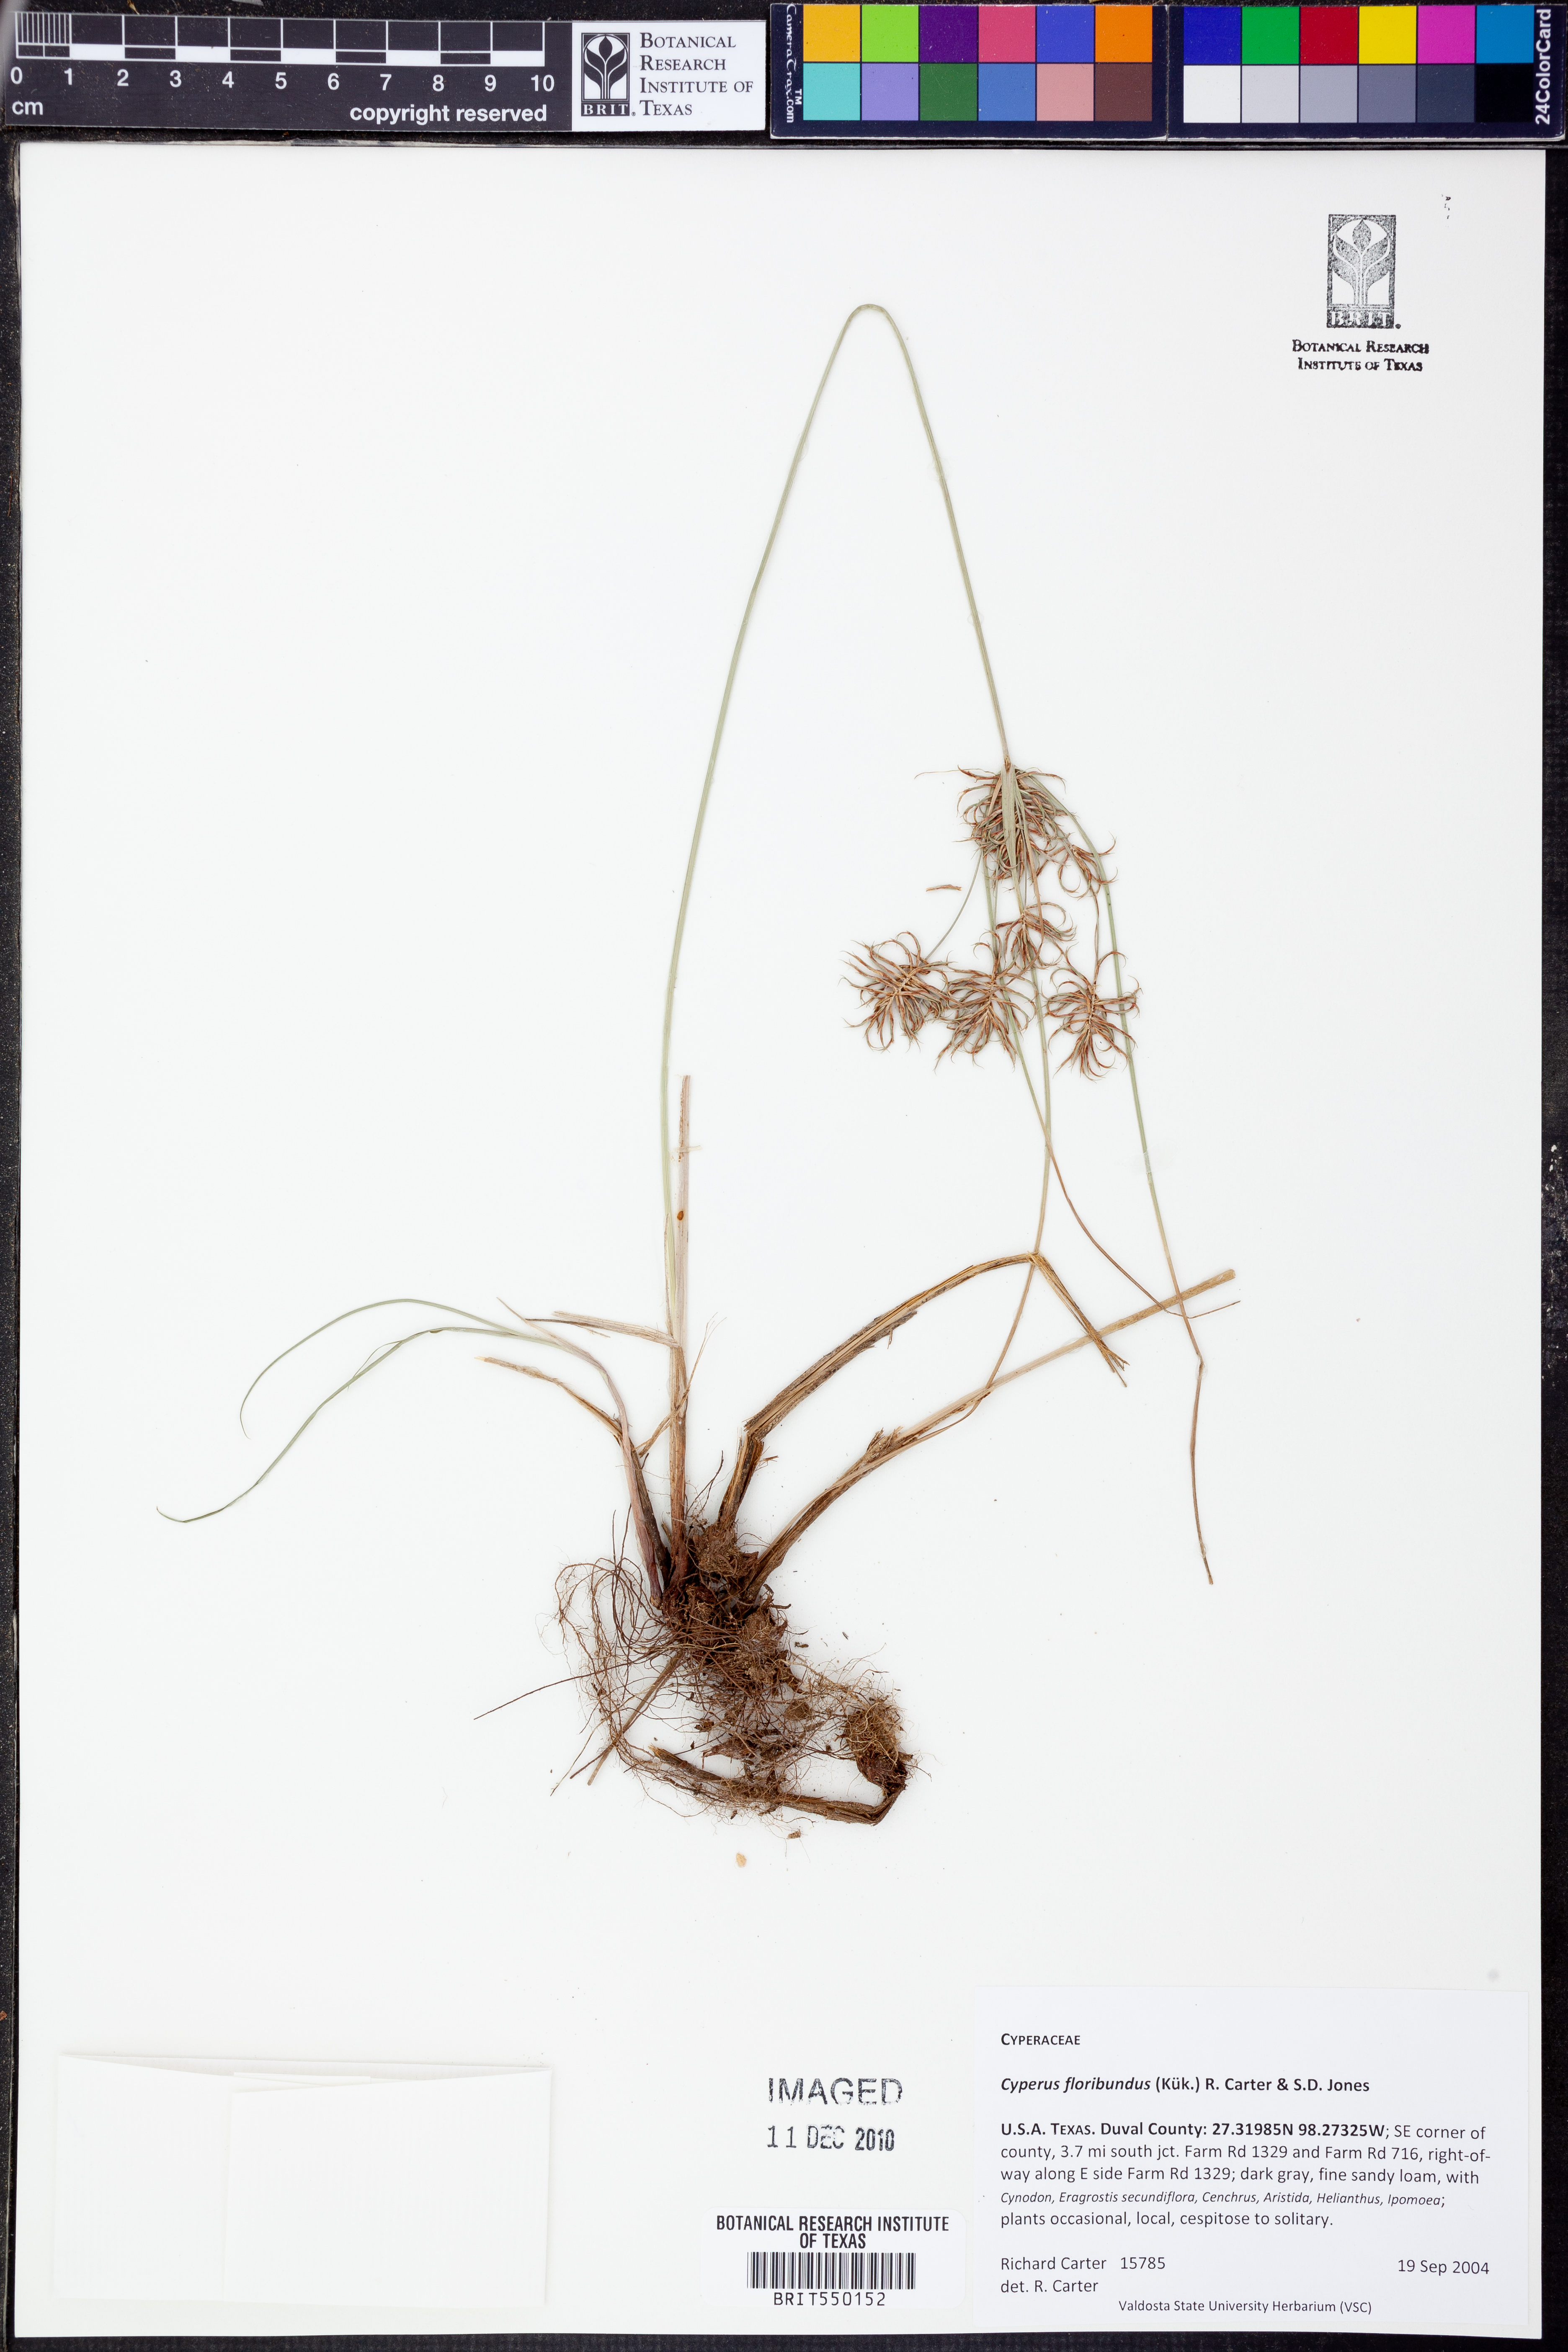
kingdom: Plantae
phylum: Tracheophyta
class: Liliopsida
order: Poales
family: Cyperaceae
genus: Cyperus
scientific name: Cyperus floribundus
